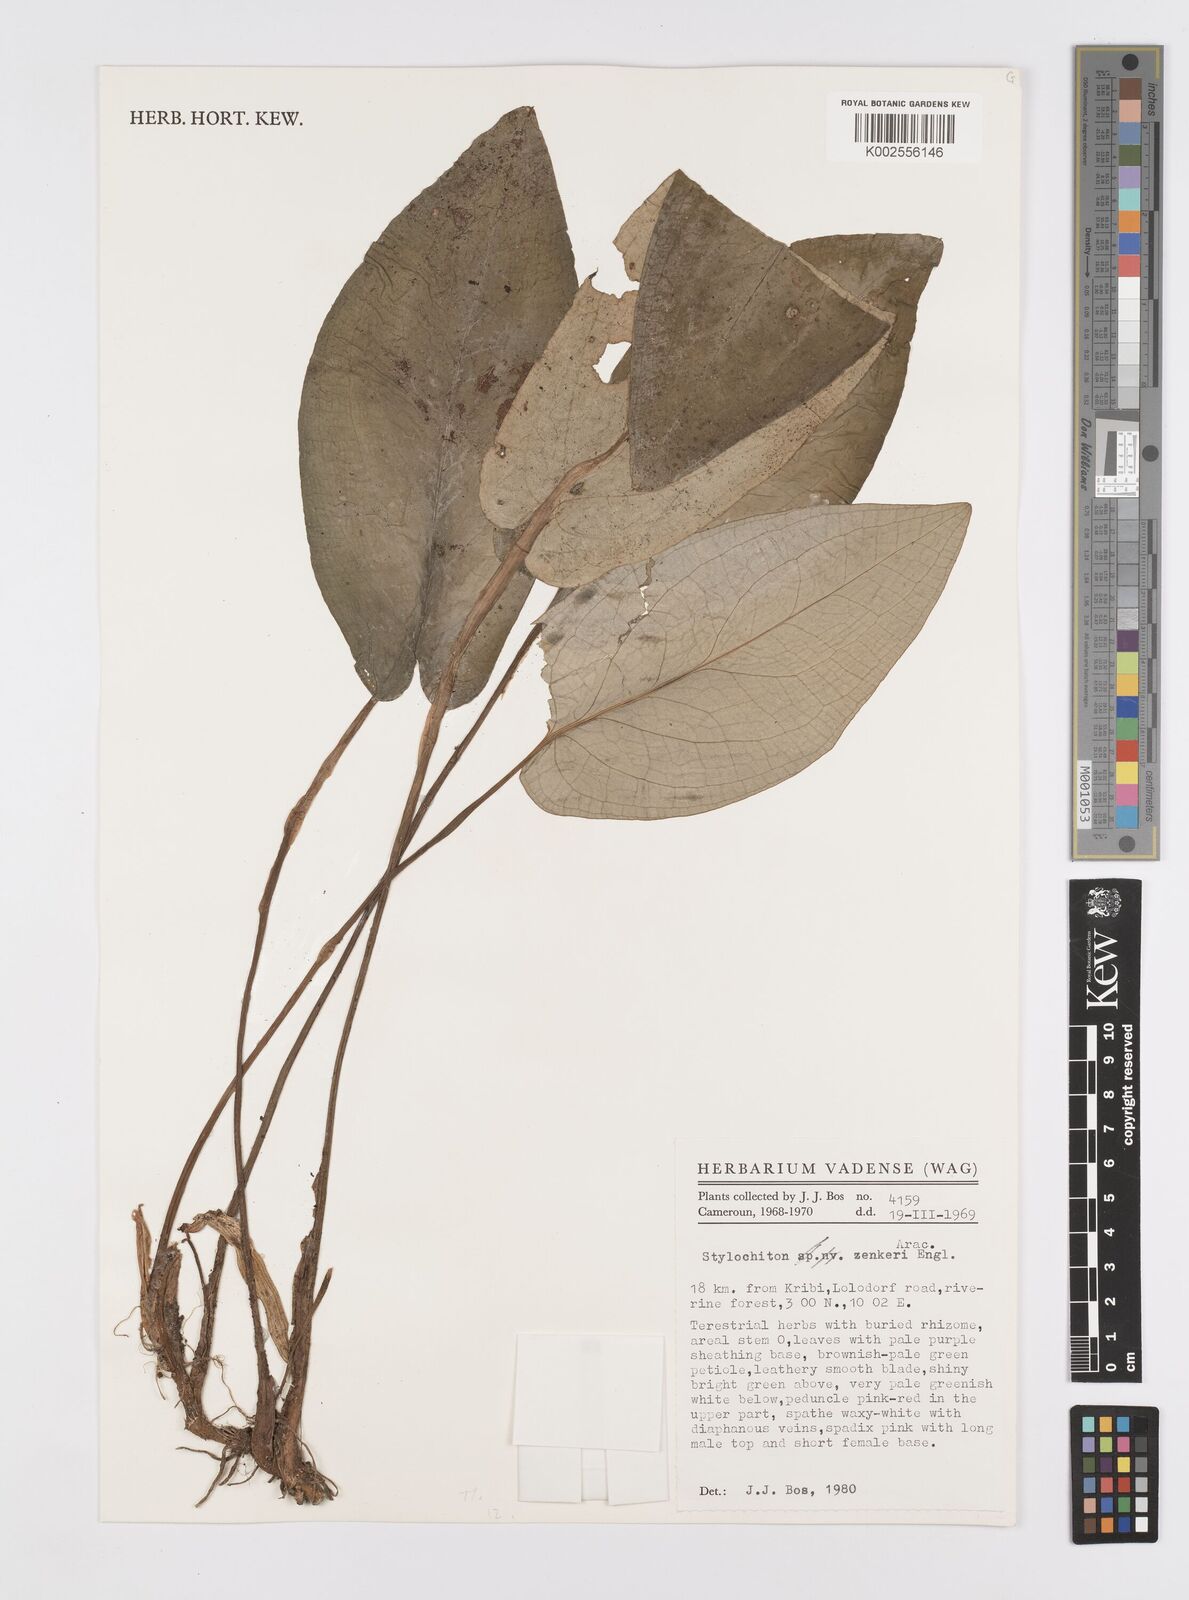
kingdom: Plantae
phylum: Tracheophyta
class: Liliopsida
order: Alismatales
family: Araceae
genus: Stylochaeton
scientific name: Stylochaeton zenkeri
